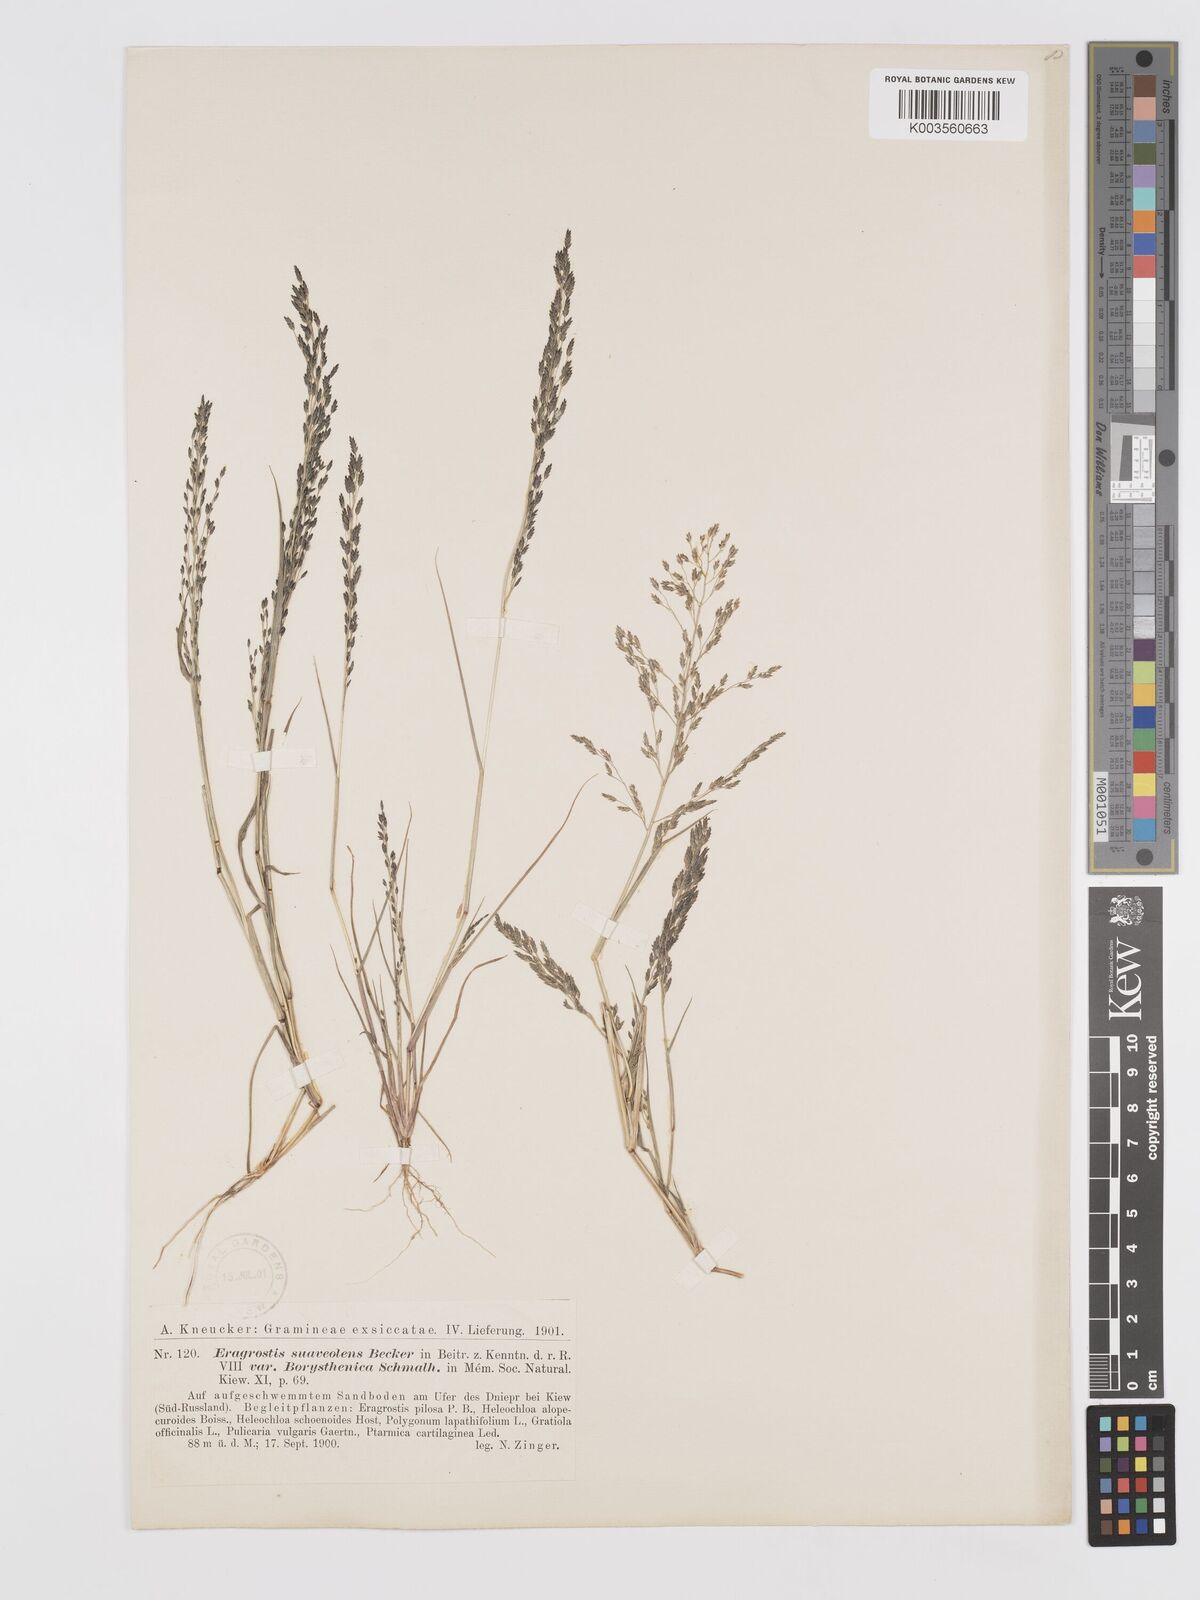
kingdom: Plantae
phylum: Tracheophyta
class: Liliopsida
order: Poales
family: Poaceae
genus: Eragrostis
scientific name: Eragrostis minor
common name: Small love-grass
